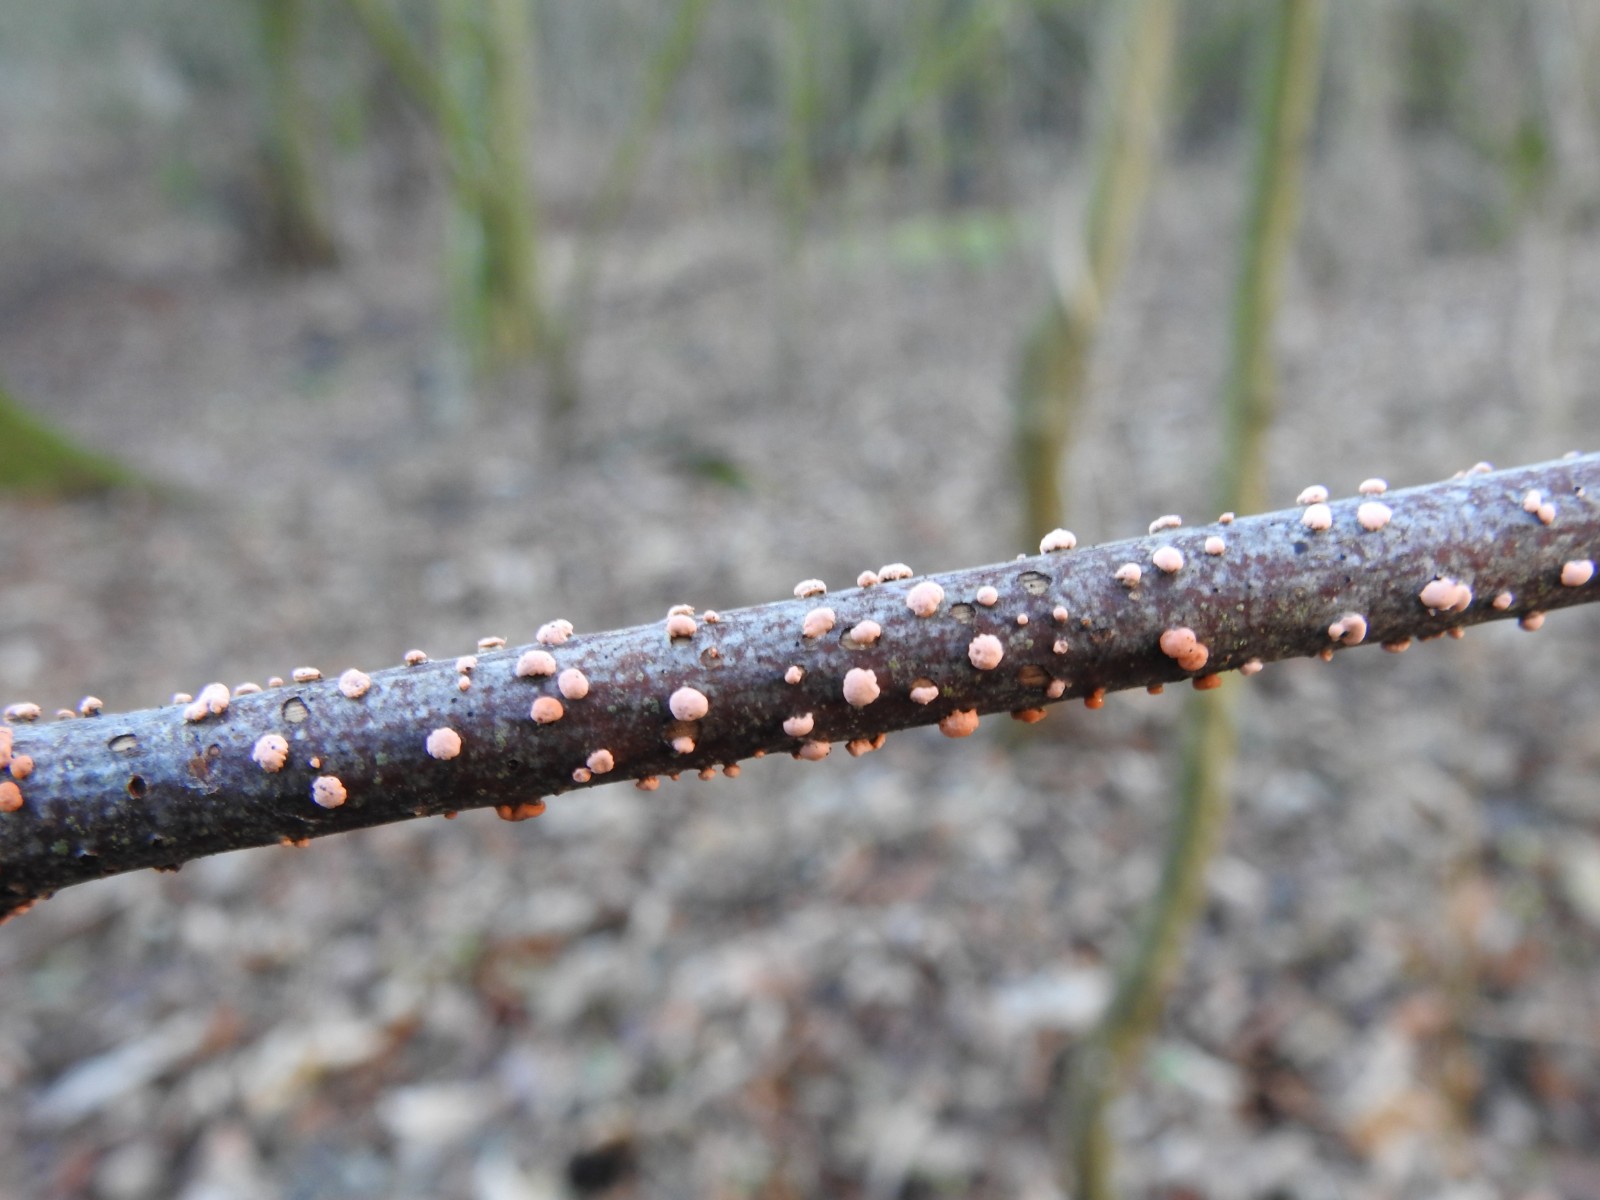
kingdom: Fungi
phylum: Ascomycota
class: Sordariomycetes
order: Hypocreales
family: Nectriaceae
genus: Nectria
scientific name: Nectria cinnabarina
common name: almindelig cinnobersvamp
